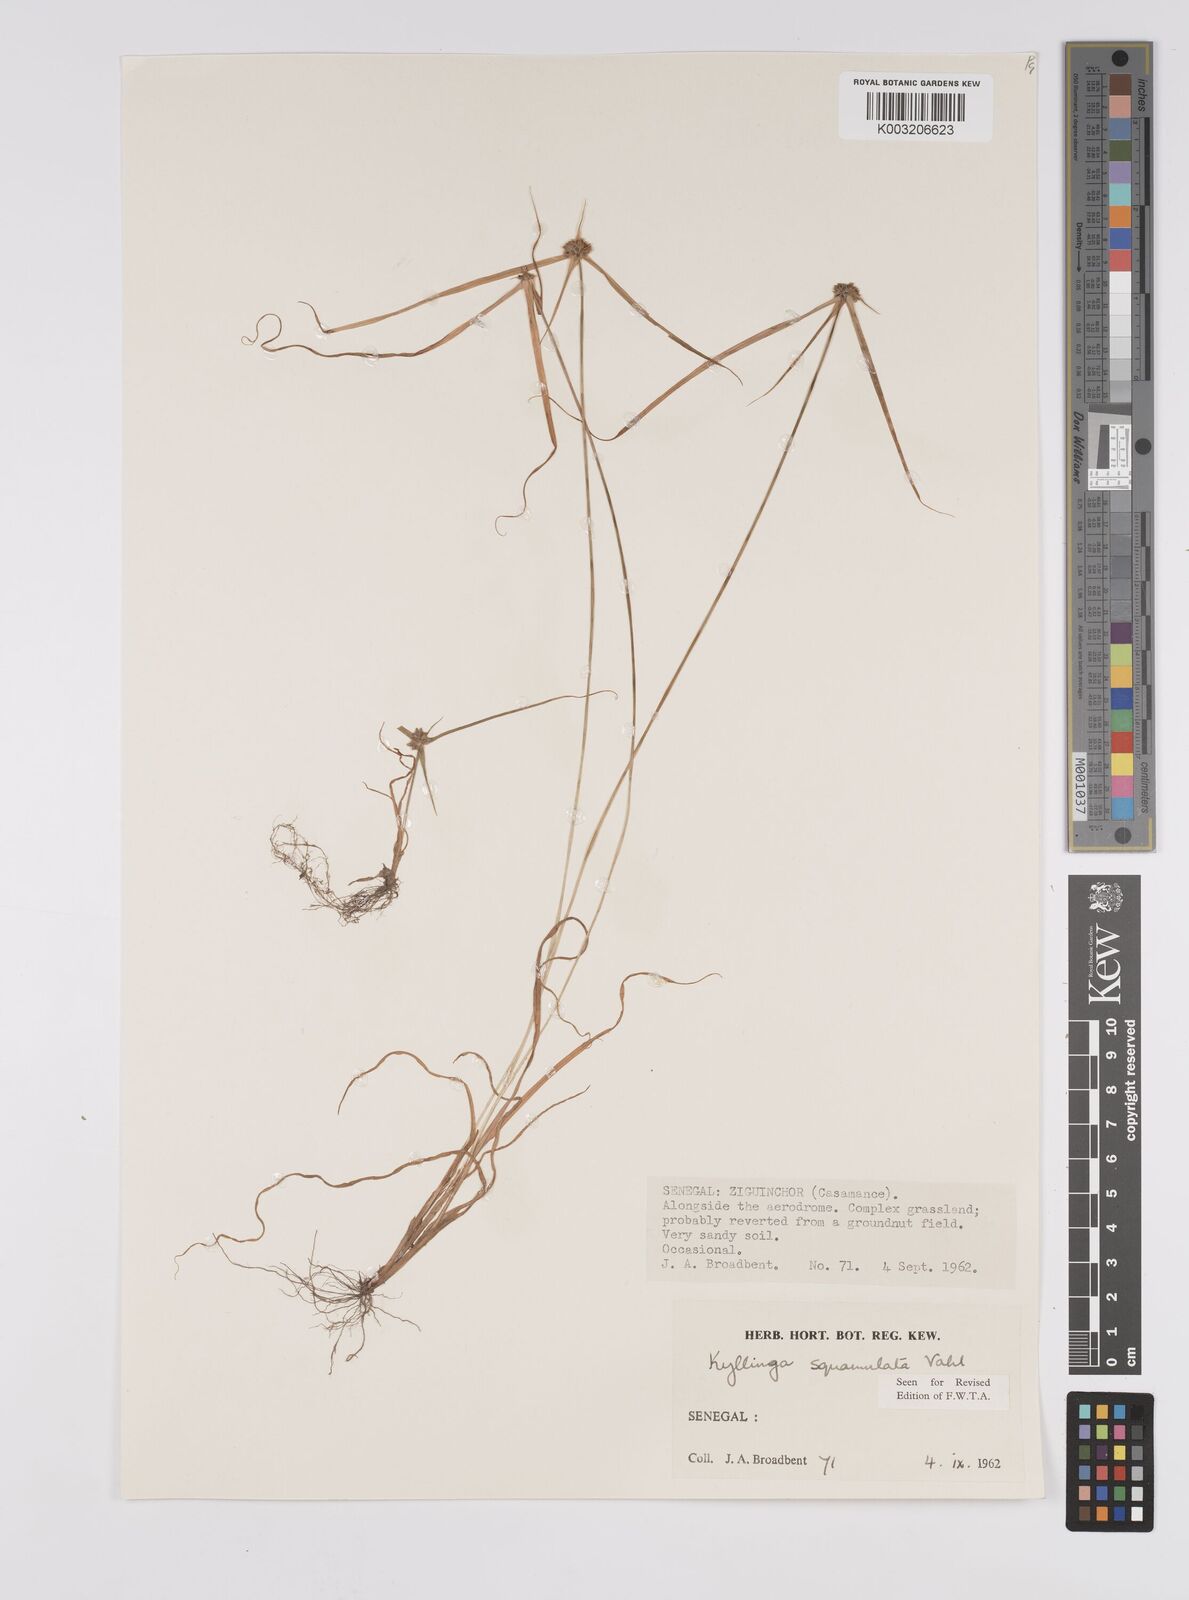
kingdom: Plantae
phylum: Tracheophyta
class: Liliopsida
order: Poales
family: Cyperaceae
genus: Cyperus
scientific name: Cyperus distans
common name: Slender cyperus
